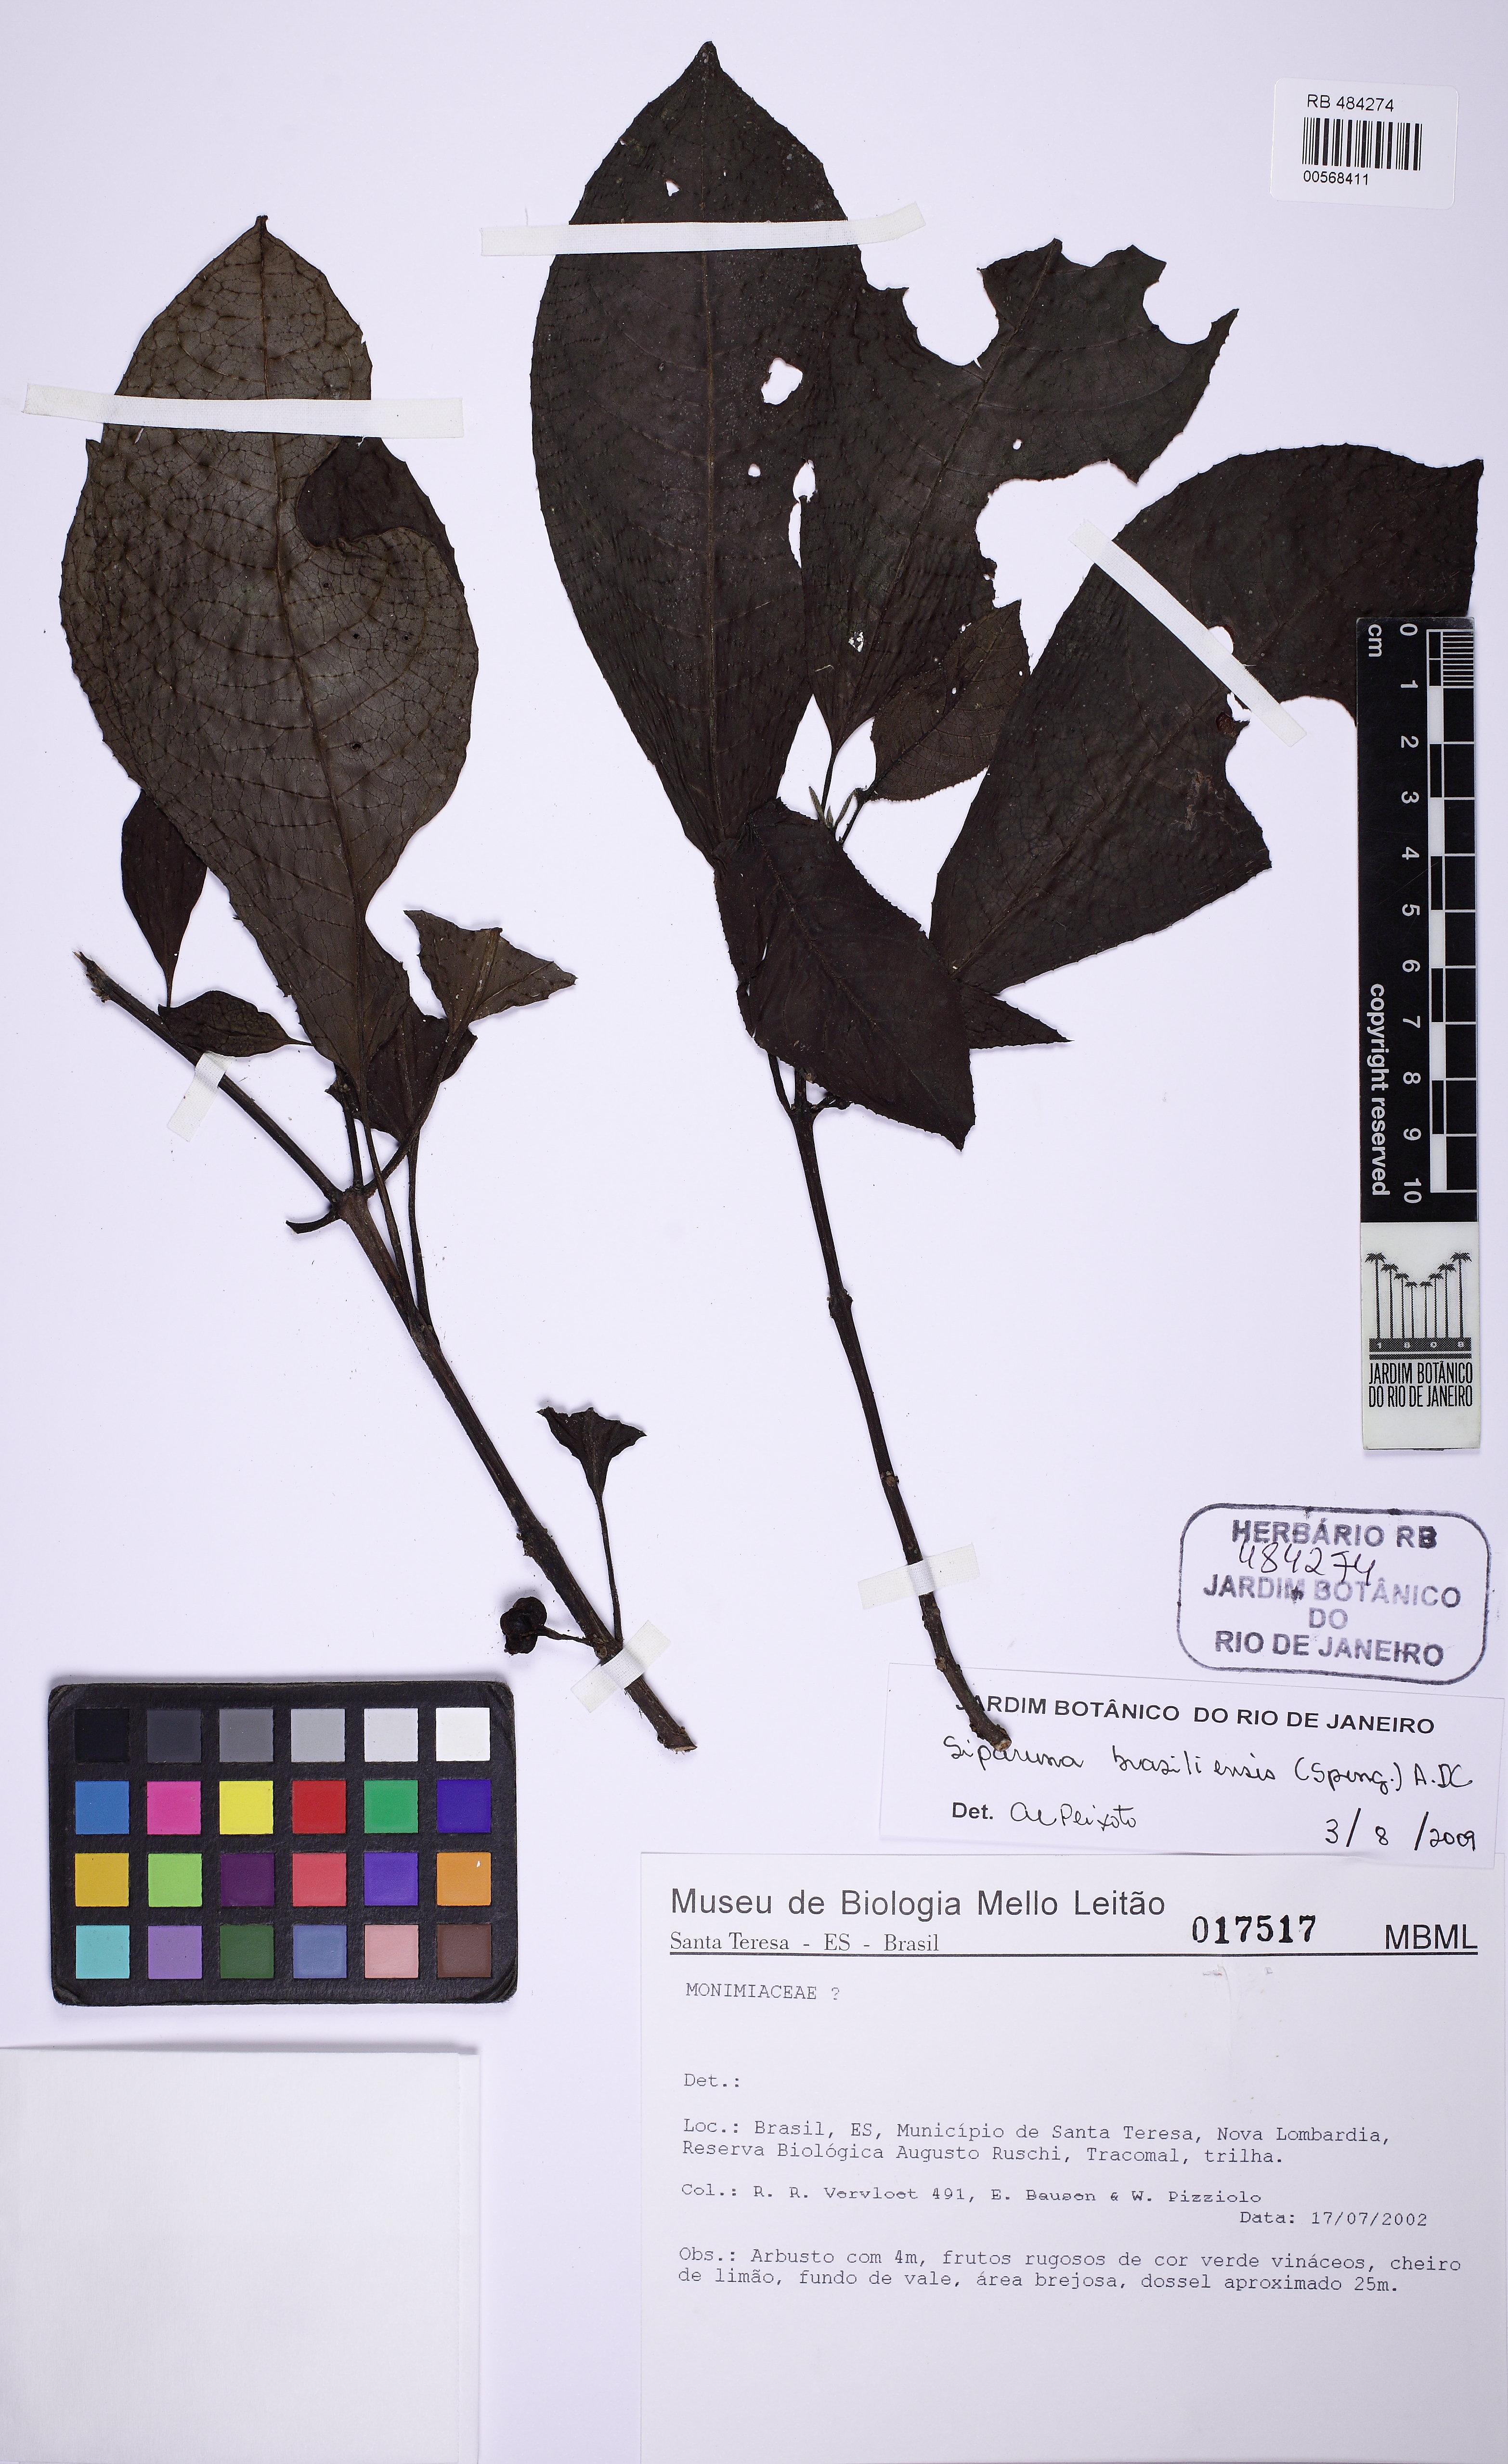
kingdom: Plantae
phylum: Tracheophyta
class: Magnoliopsida
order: Laurales
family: Siparunaceae
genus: Siparuna
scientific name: Siparuna brasiliensis
